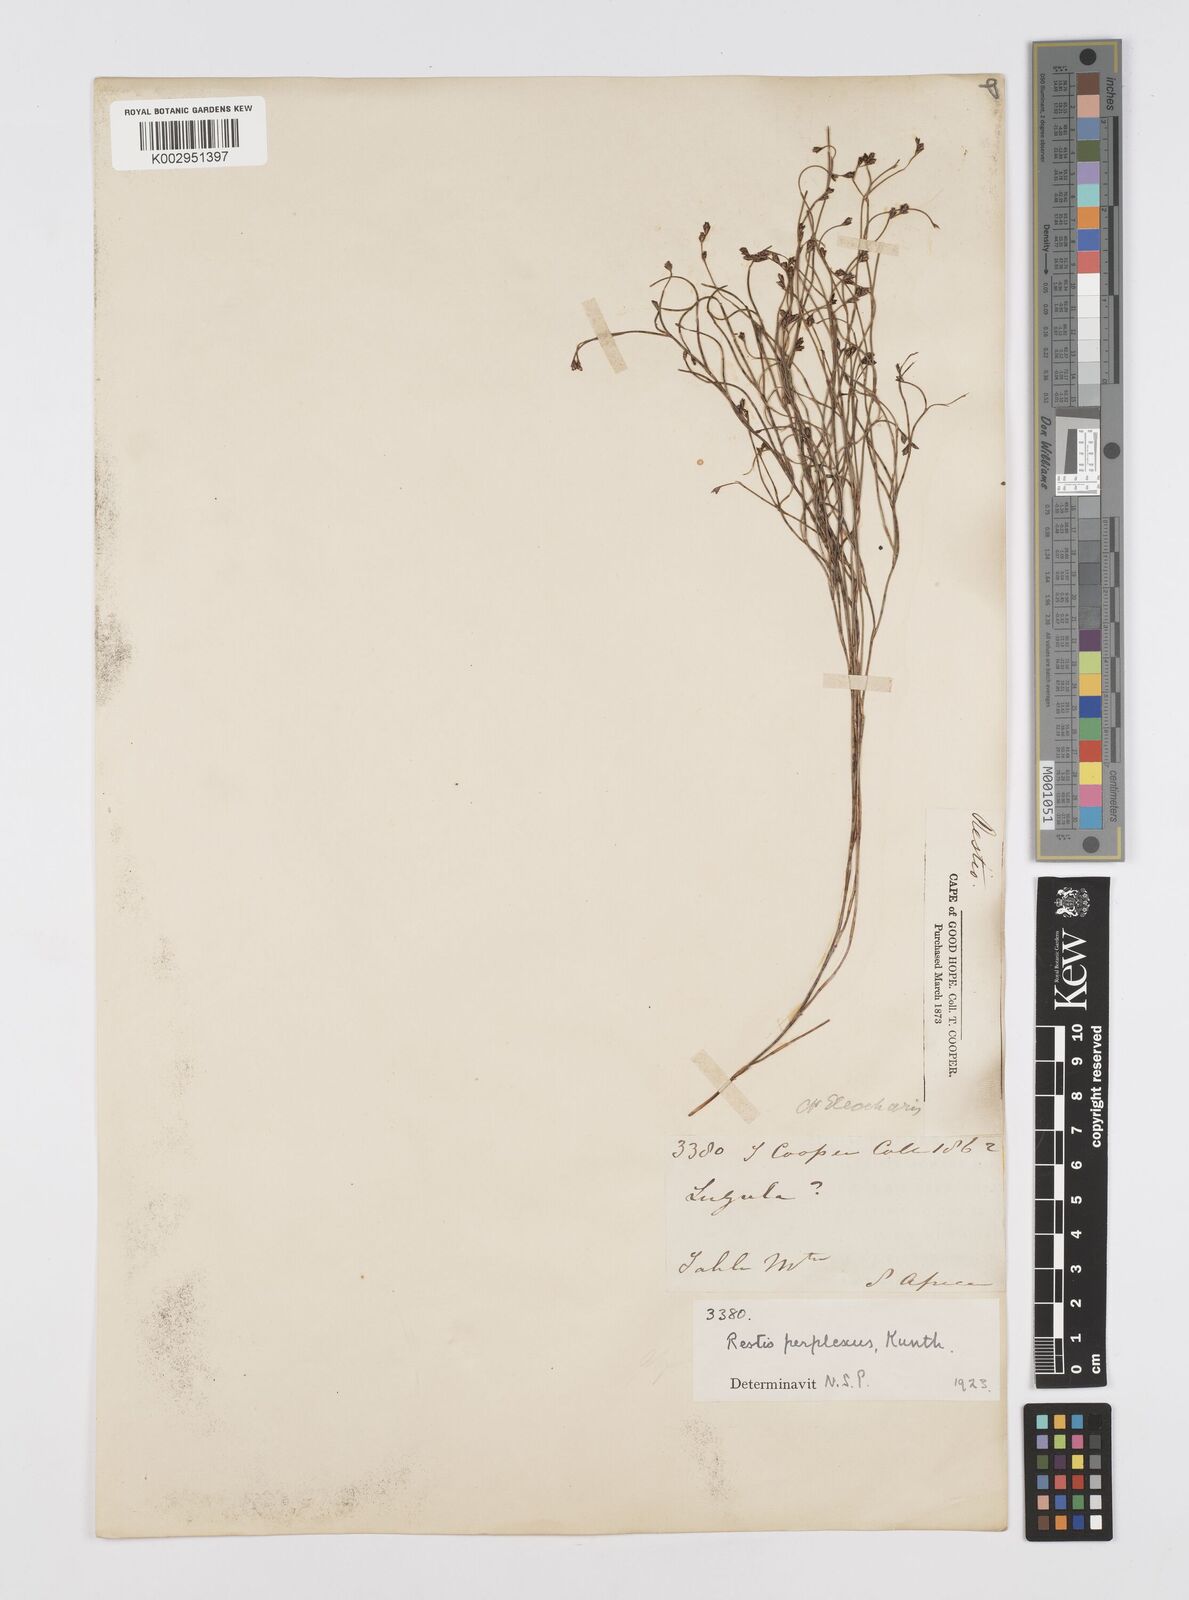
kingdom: Plantae
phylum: Tracheophyta
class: Liliopsida
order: Poales
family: Restionaceae
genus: Restio
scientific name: Restio perplexus
